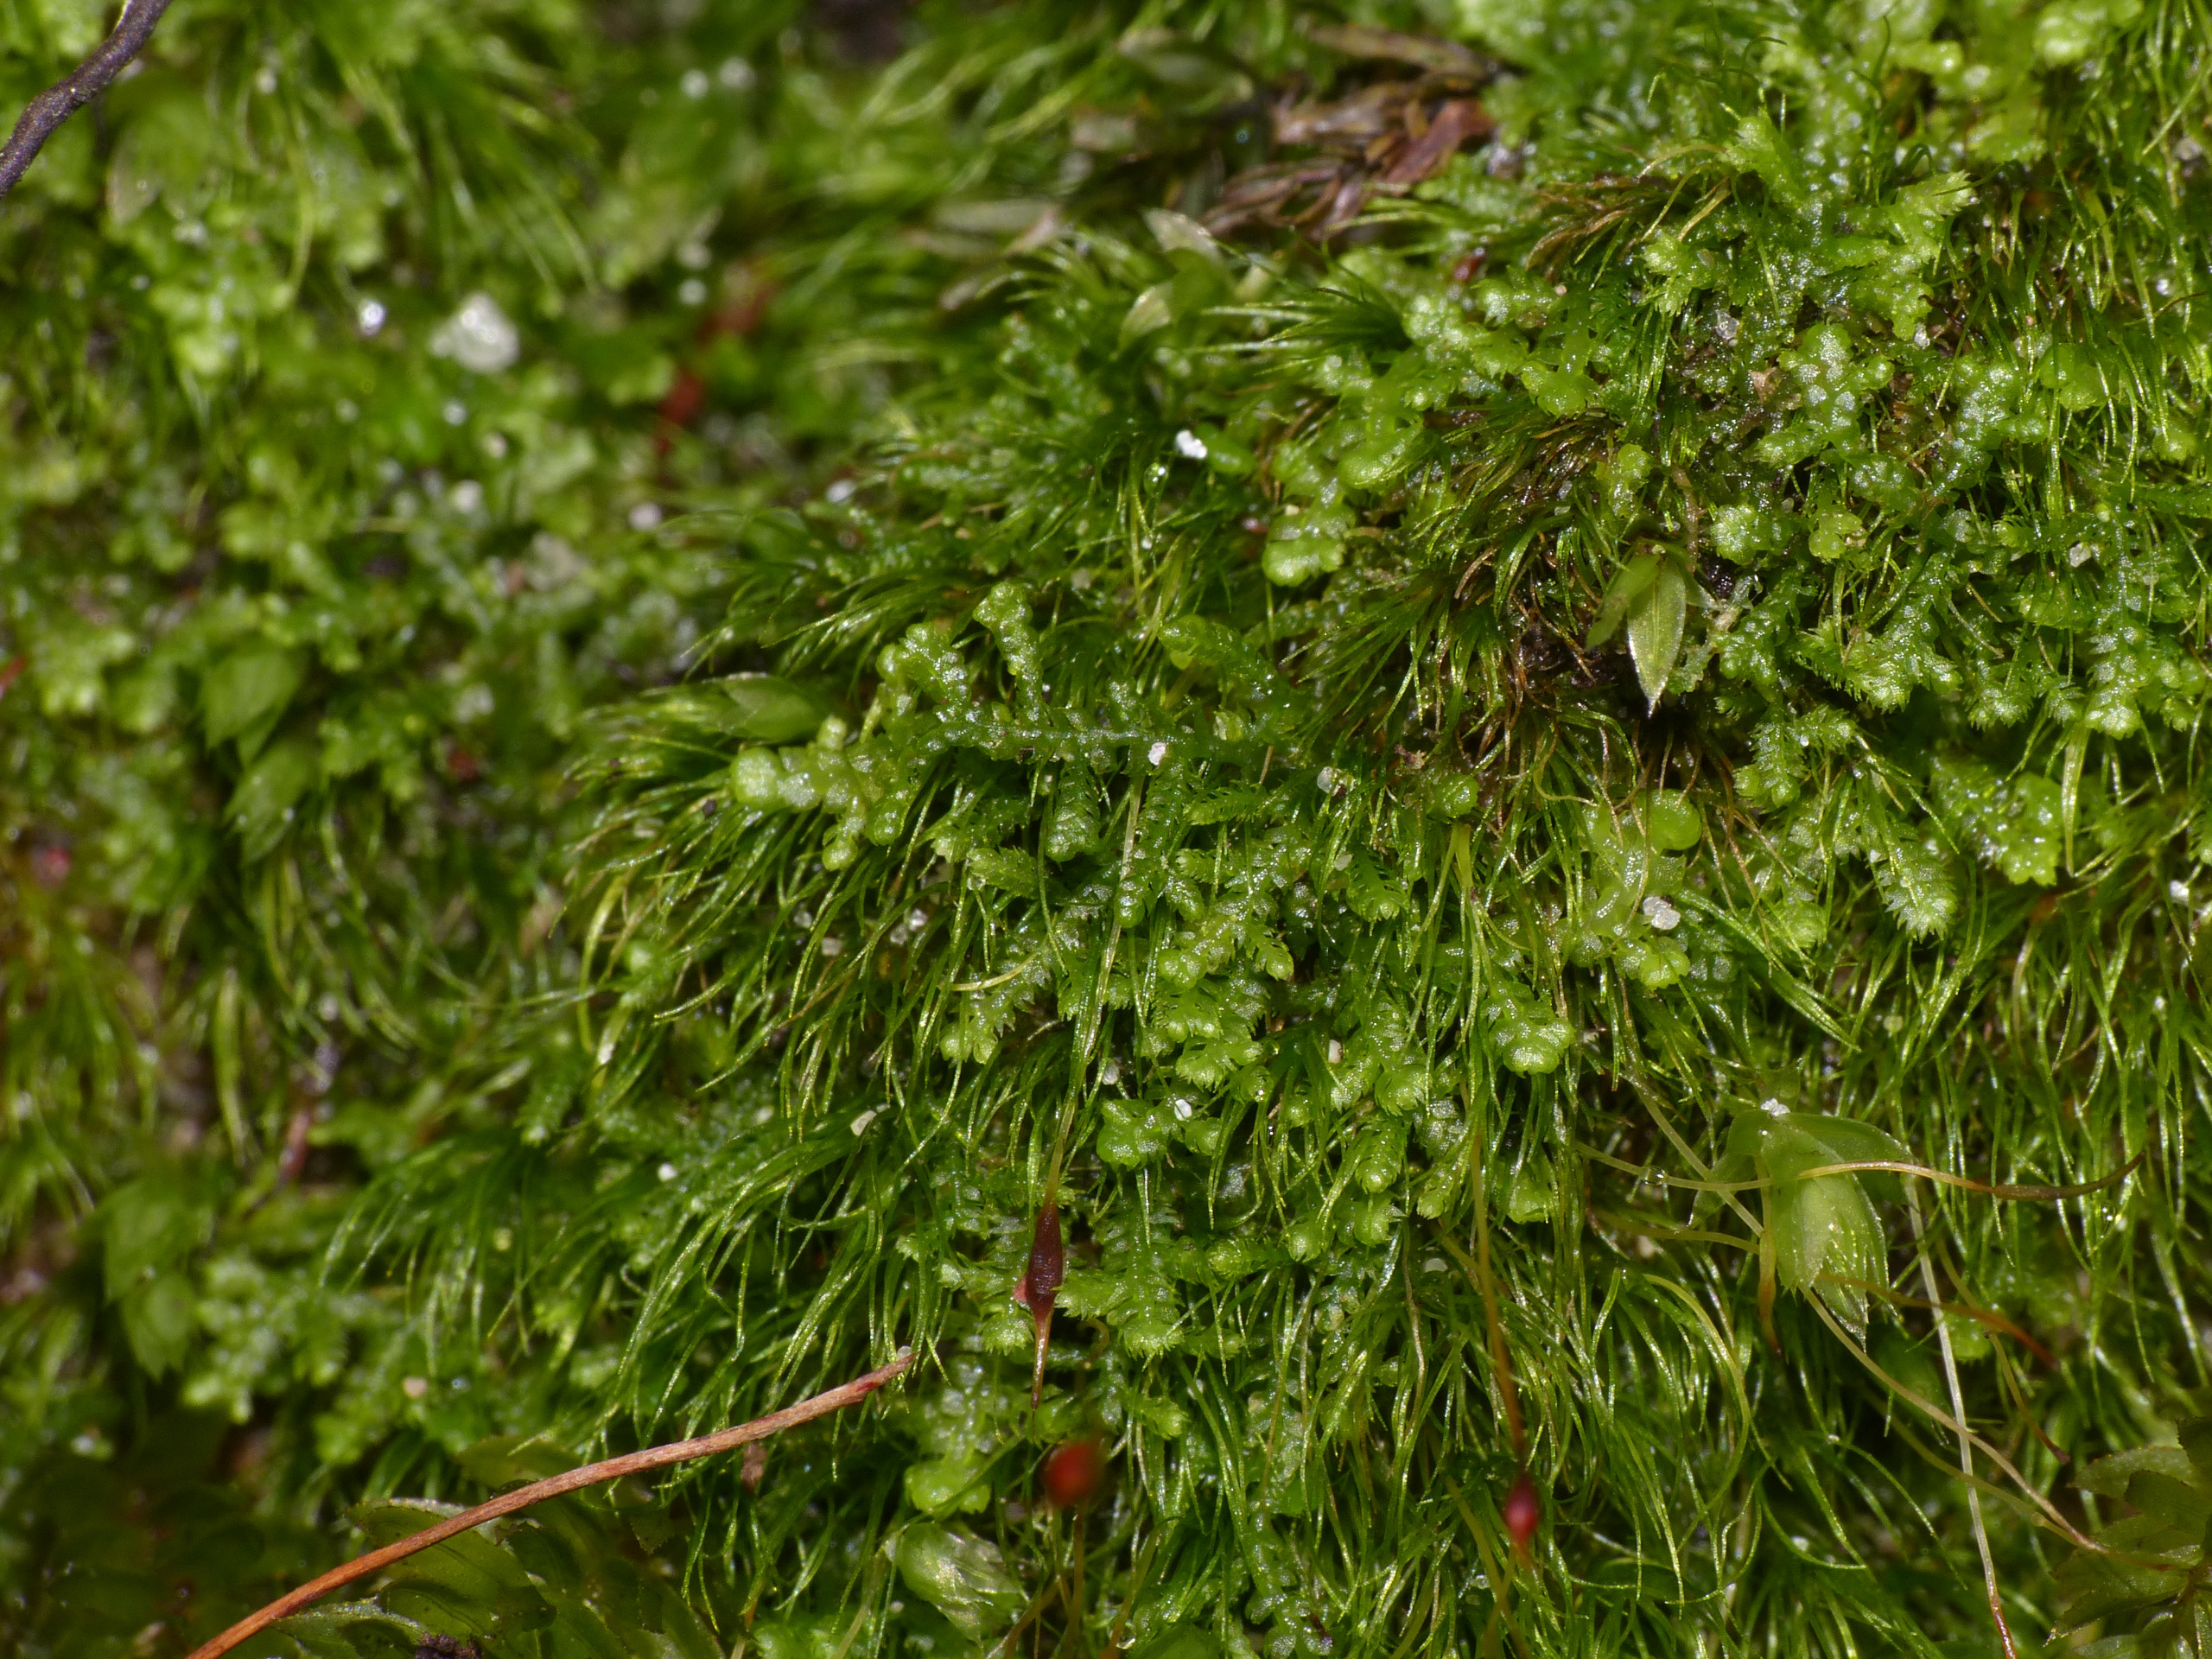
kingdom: Plantae
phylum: Marchantiophyta
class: Jungermanniopsida
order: Jungermanniales
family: Lepidoziaceae
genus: Lepidozia
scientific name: Lepidozia reptans
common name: Krybende fingermos
